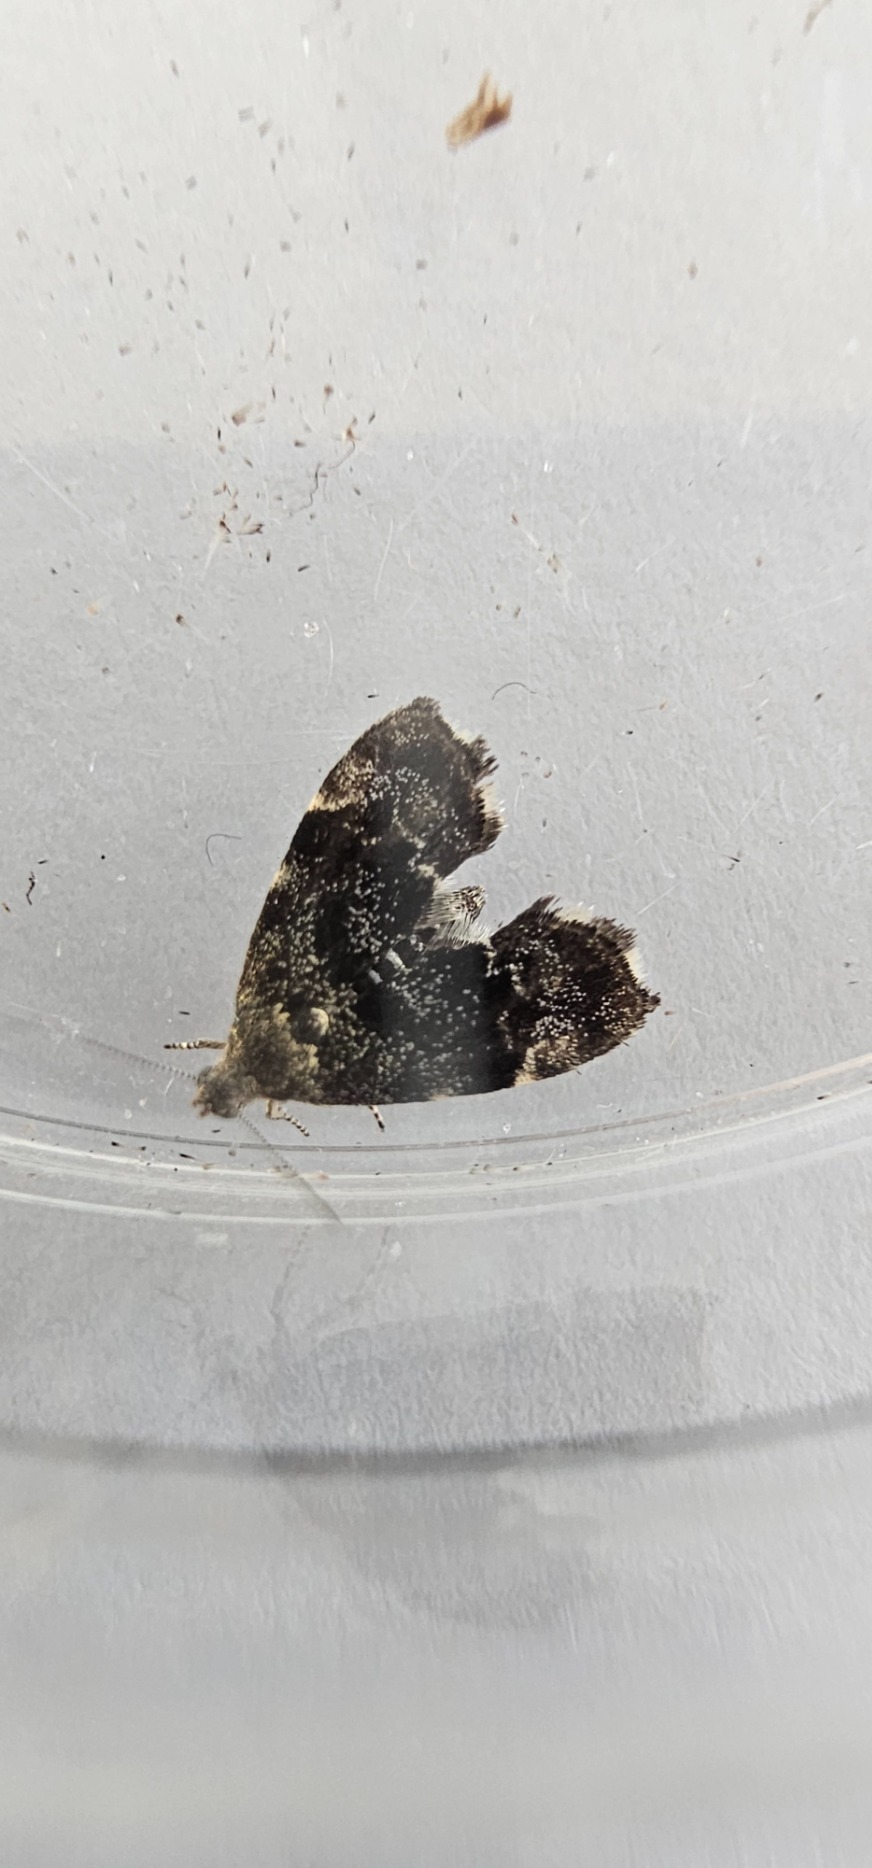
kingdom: Animalia
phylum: Arthropoda
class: Insecta
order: Lepidoptera
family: Choreutidae
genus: Anthophila
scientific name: Anthophila fabriciana
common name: Bredvinget nældevikler
